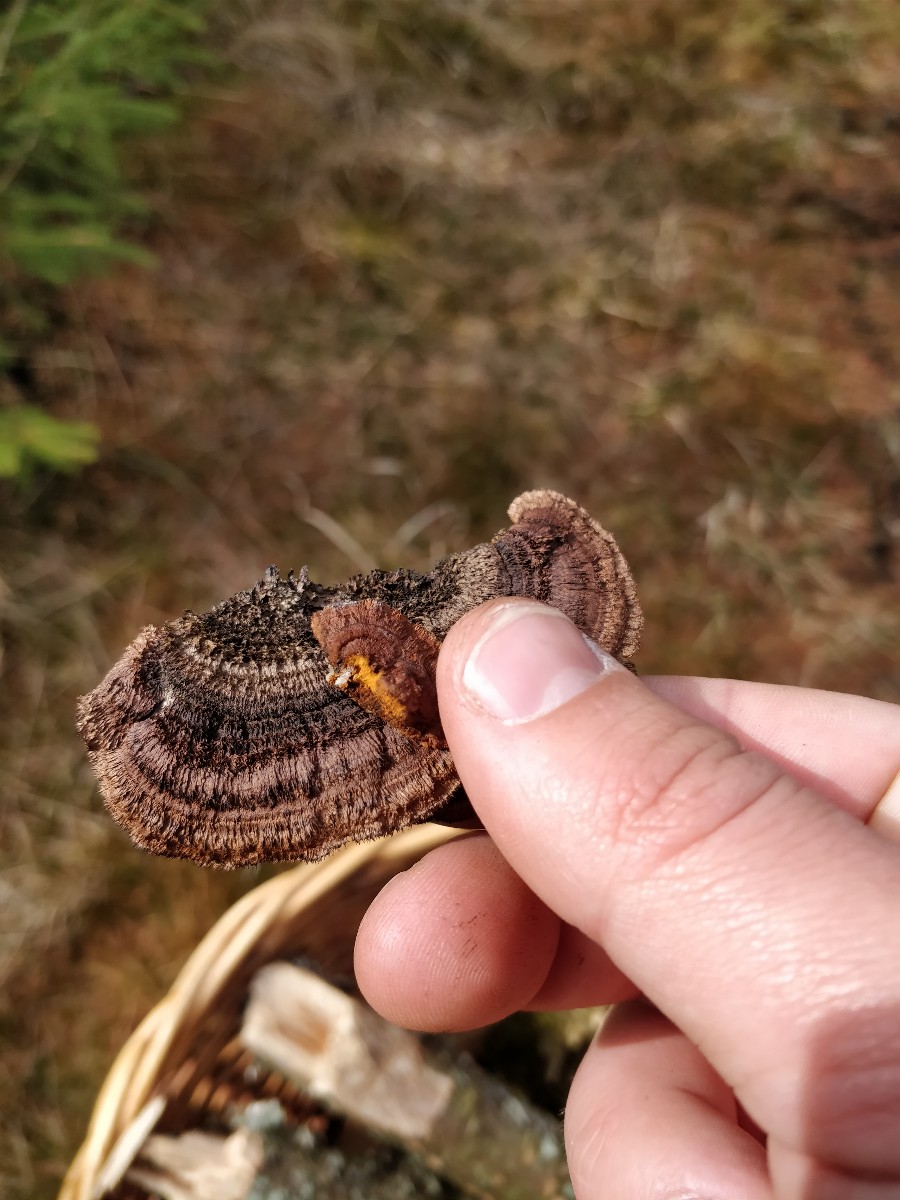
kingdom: Fungi
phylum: Basidiomycota
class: Agaricomycetes
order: Gloeophyllales
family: Gloeophyllaceae
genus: Gloeophyllum
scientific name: Gloeophyllum sepiarium
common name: fyrre-korkhat
